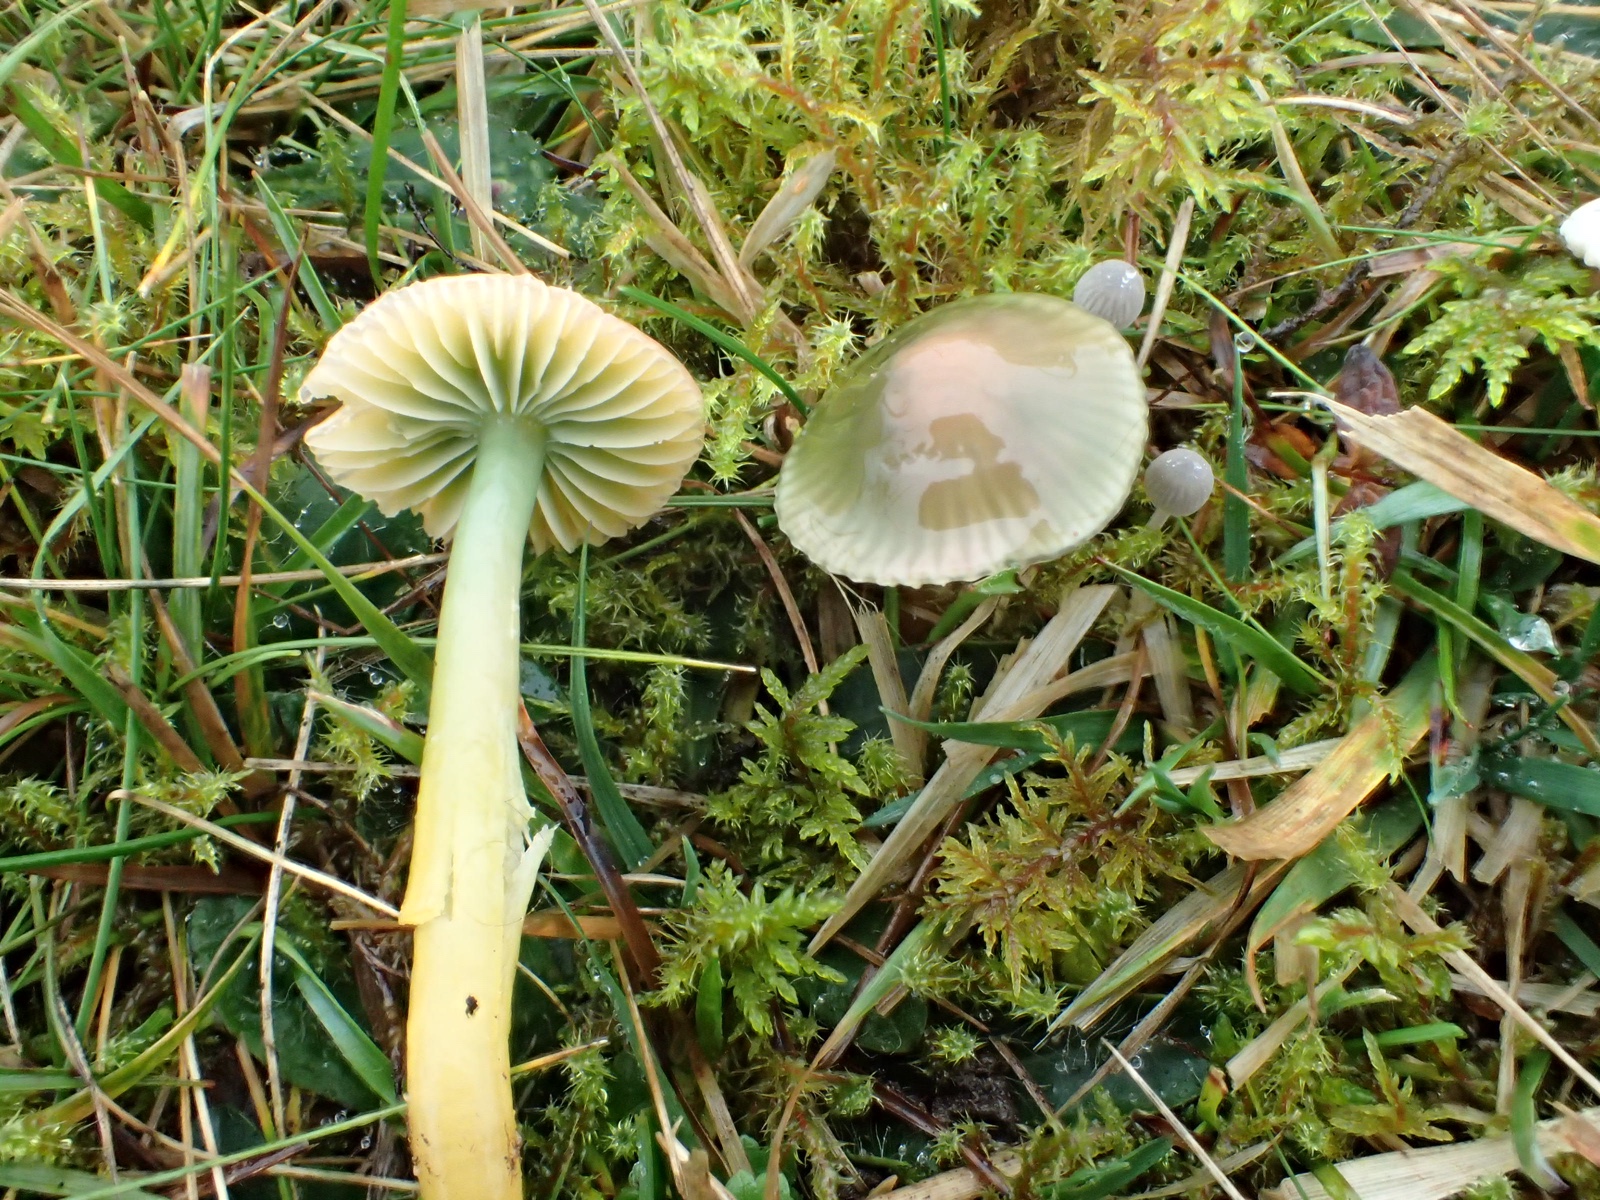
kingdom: Fungi
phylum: Basidiomycota
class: Agaricomycetes
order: Agaricales
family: Hygrophoraceae
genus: Gliophorus
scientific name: Gliophorus psittacinus
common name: papegøje-vokshat
